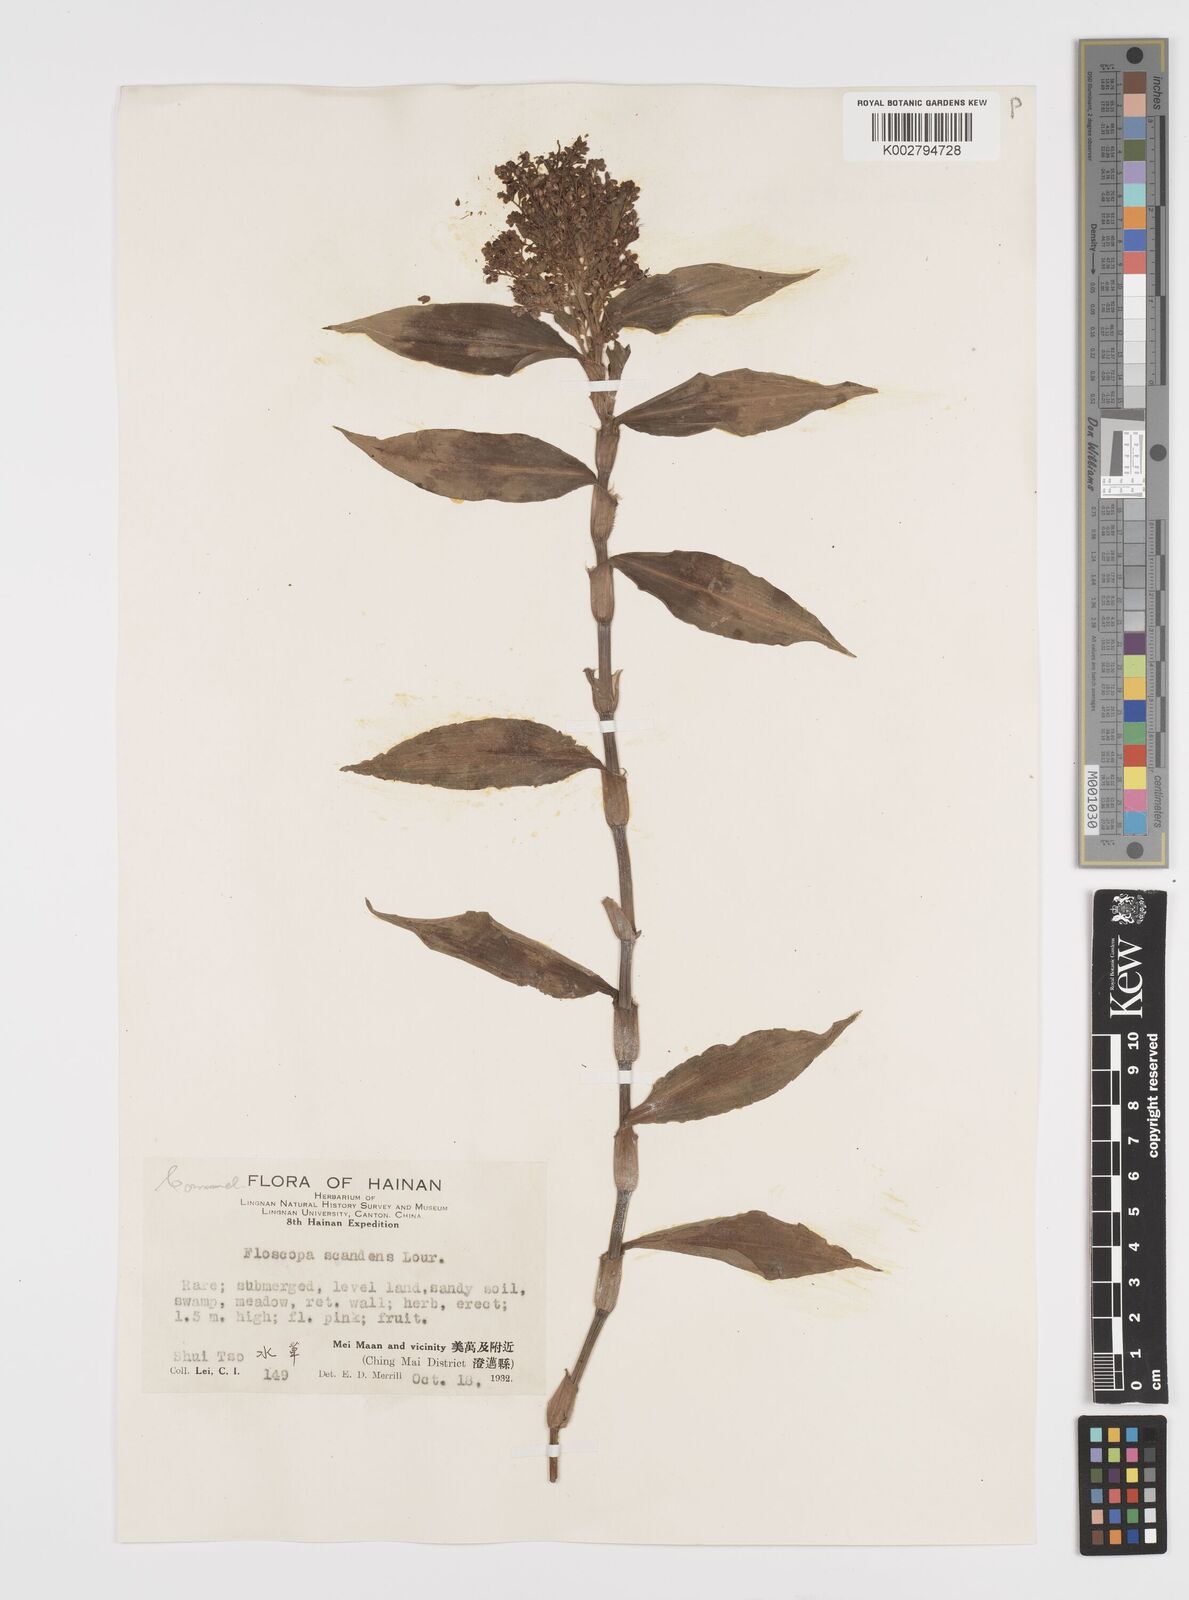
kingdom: Plantae
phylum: Tracheophyta
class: Liliopsida
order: Commelinales
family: Commelinaceae
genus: Floscopa
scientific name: Floscopa scandens
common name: Climbing flower cup
